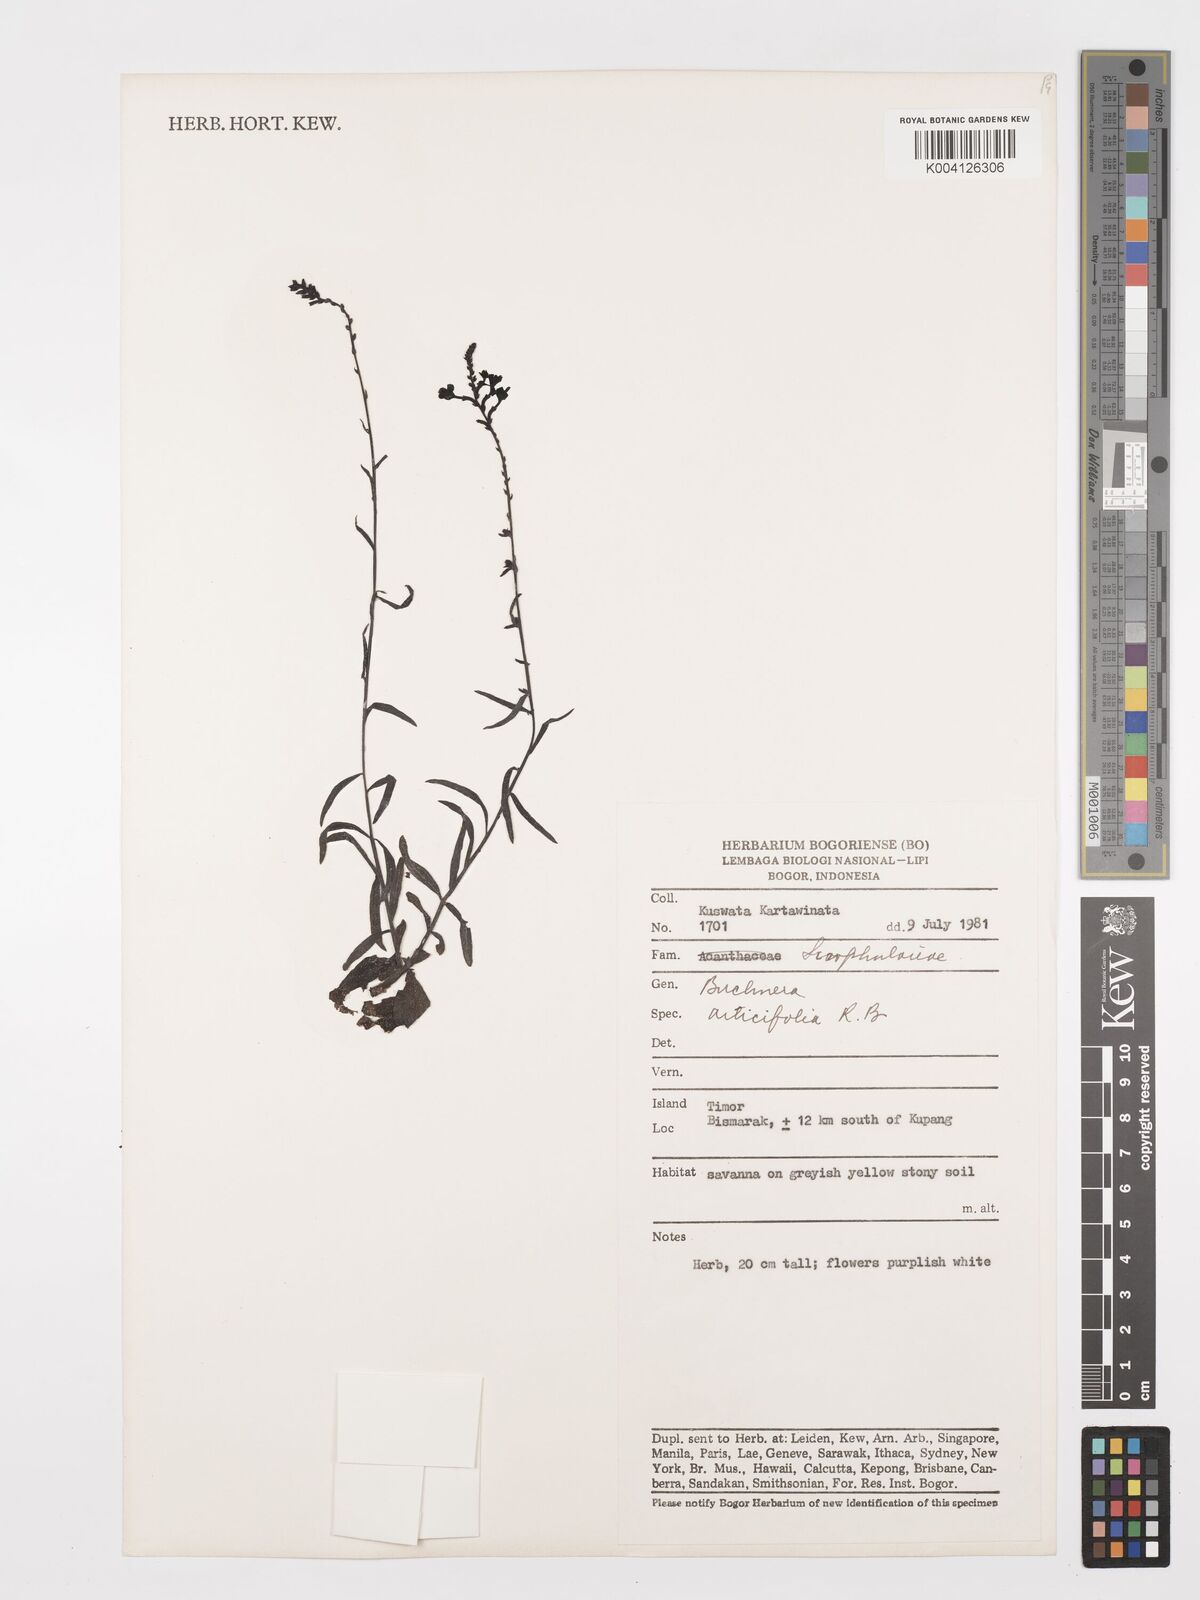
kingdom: Plantae
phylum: Tracheophyta
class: Magnoliopsida
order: Lamiales
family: Orobanchaceae
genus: Buchnera
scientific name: Buchnera cruciata
